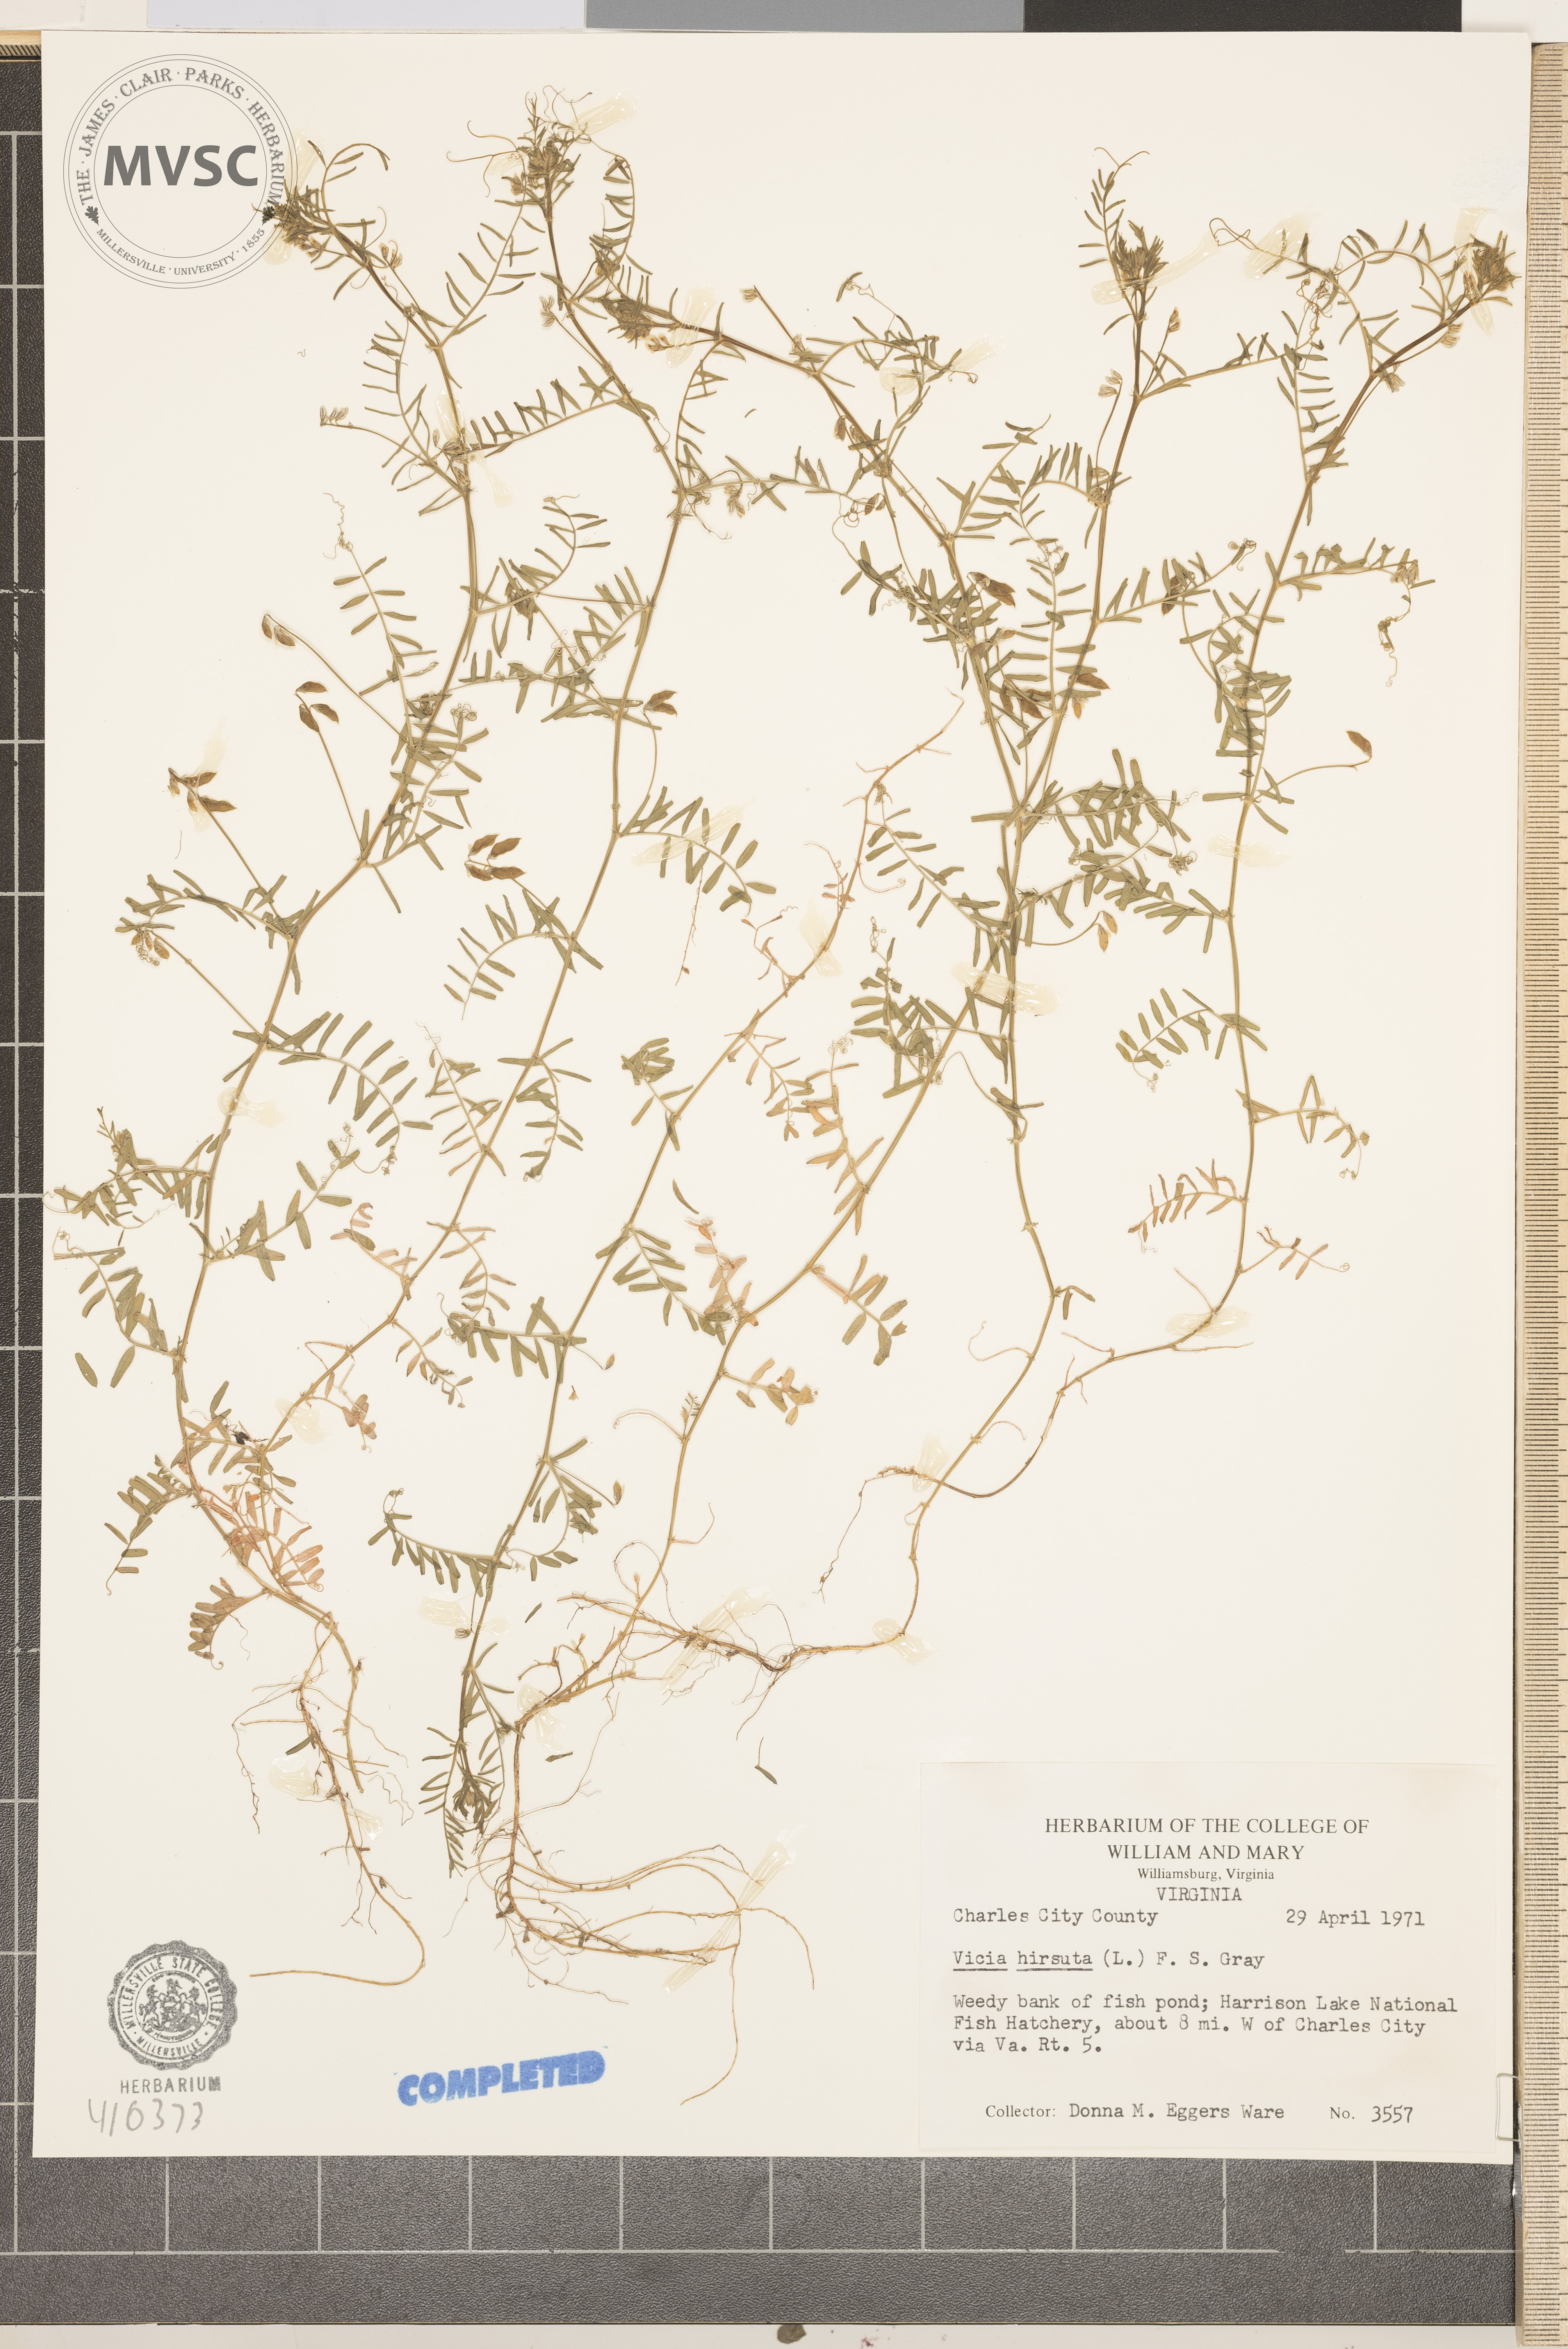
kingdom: Plantae
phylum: Tracheophyta
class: Magnoliopsida
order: Fabales
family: Fabaceae
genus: Vicia
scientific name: Vicia hirsuta
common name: Tiny vetch
